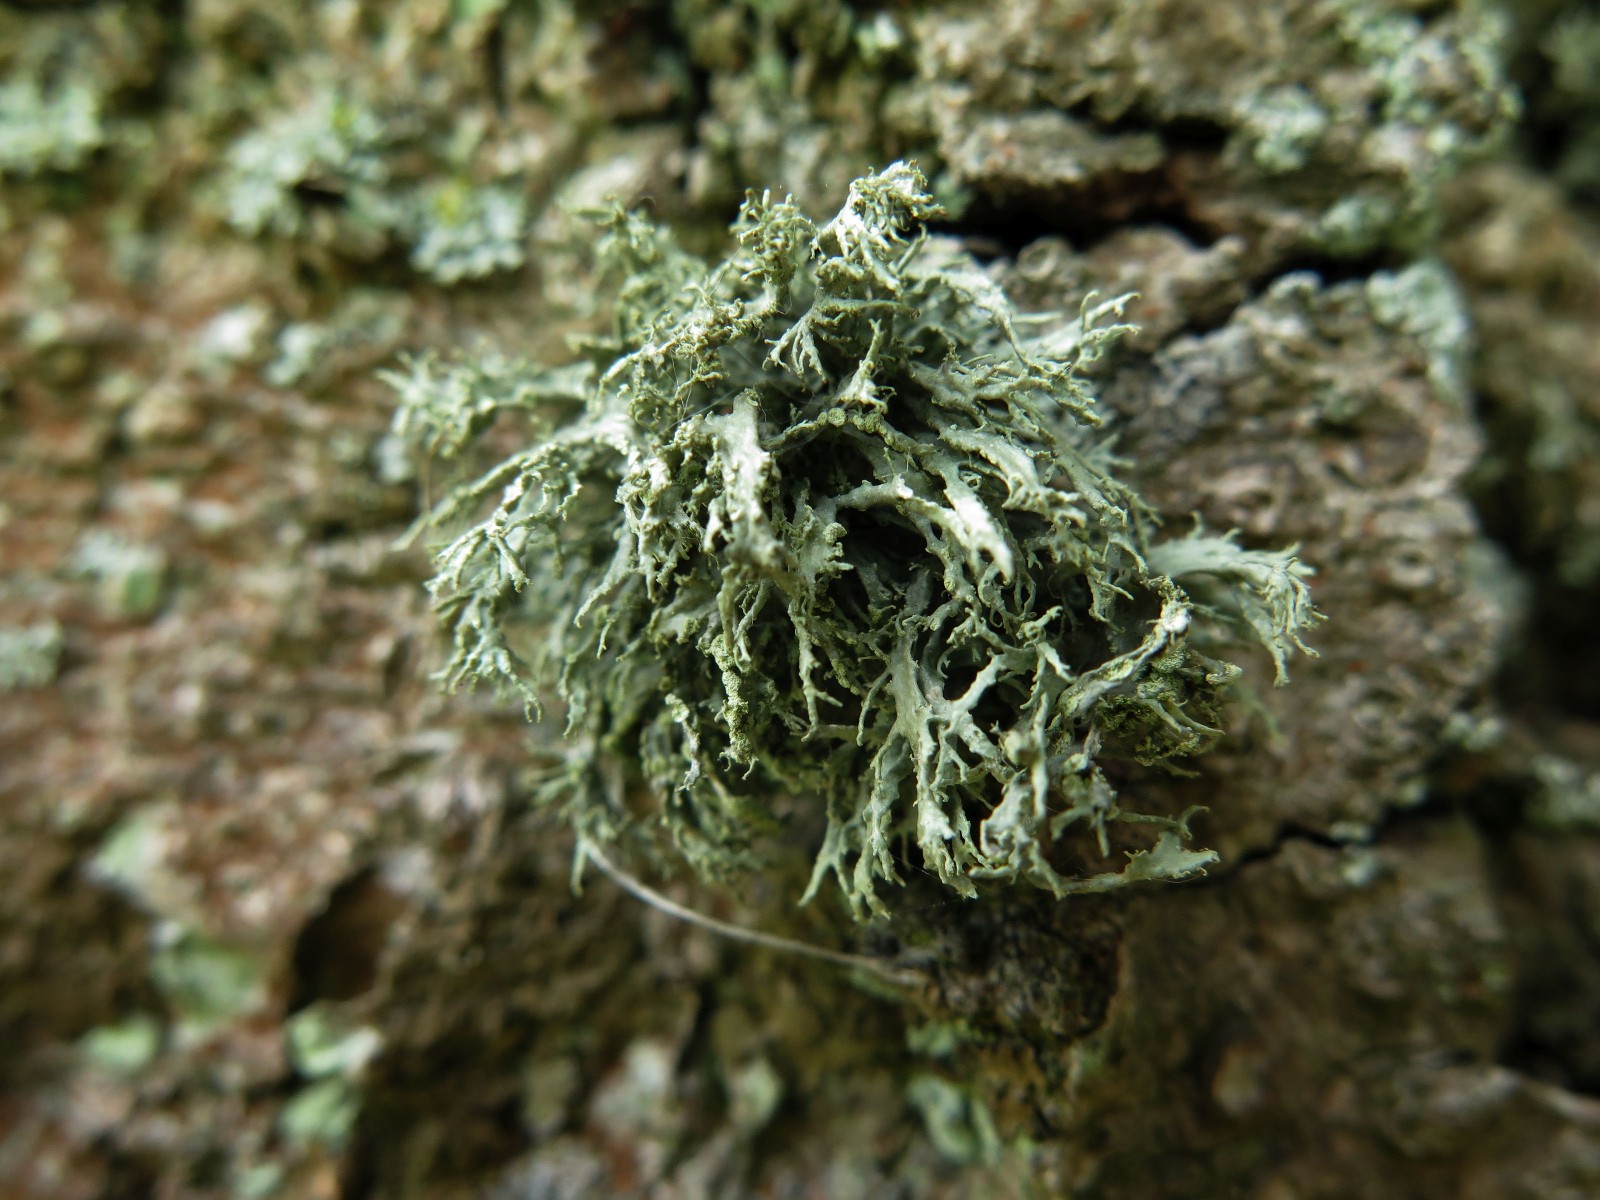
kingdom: Fungi
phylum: Ascomycota
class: Lecanoromycetes
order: Lecanorales
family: Ramalinaceae
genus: Ramalina
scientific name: Ramalina farinacea
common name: melet grenlav
